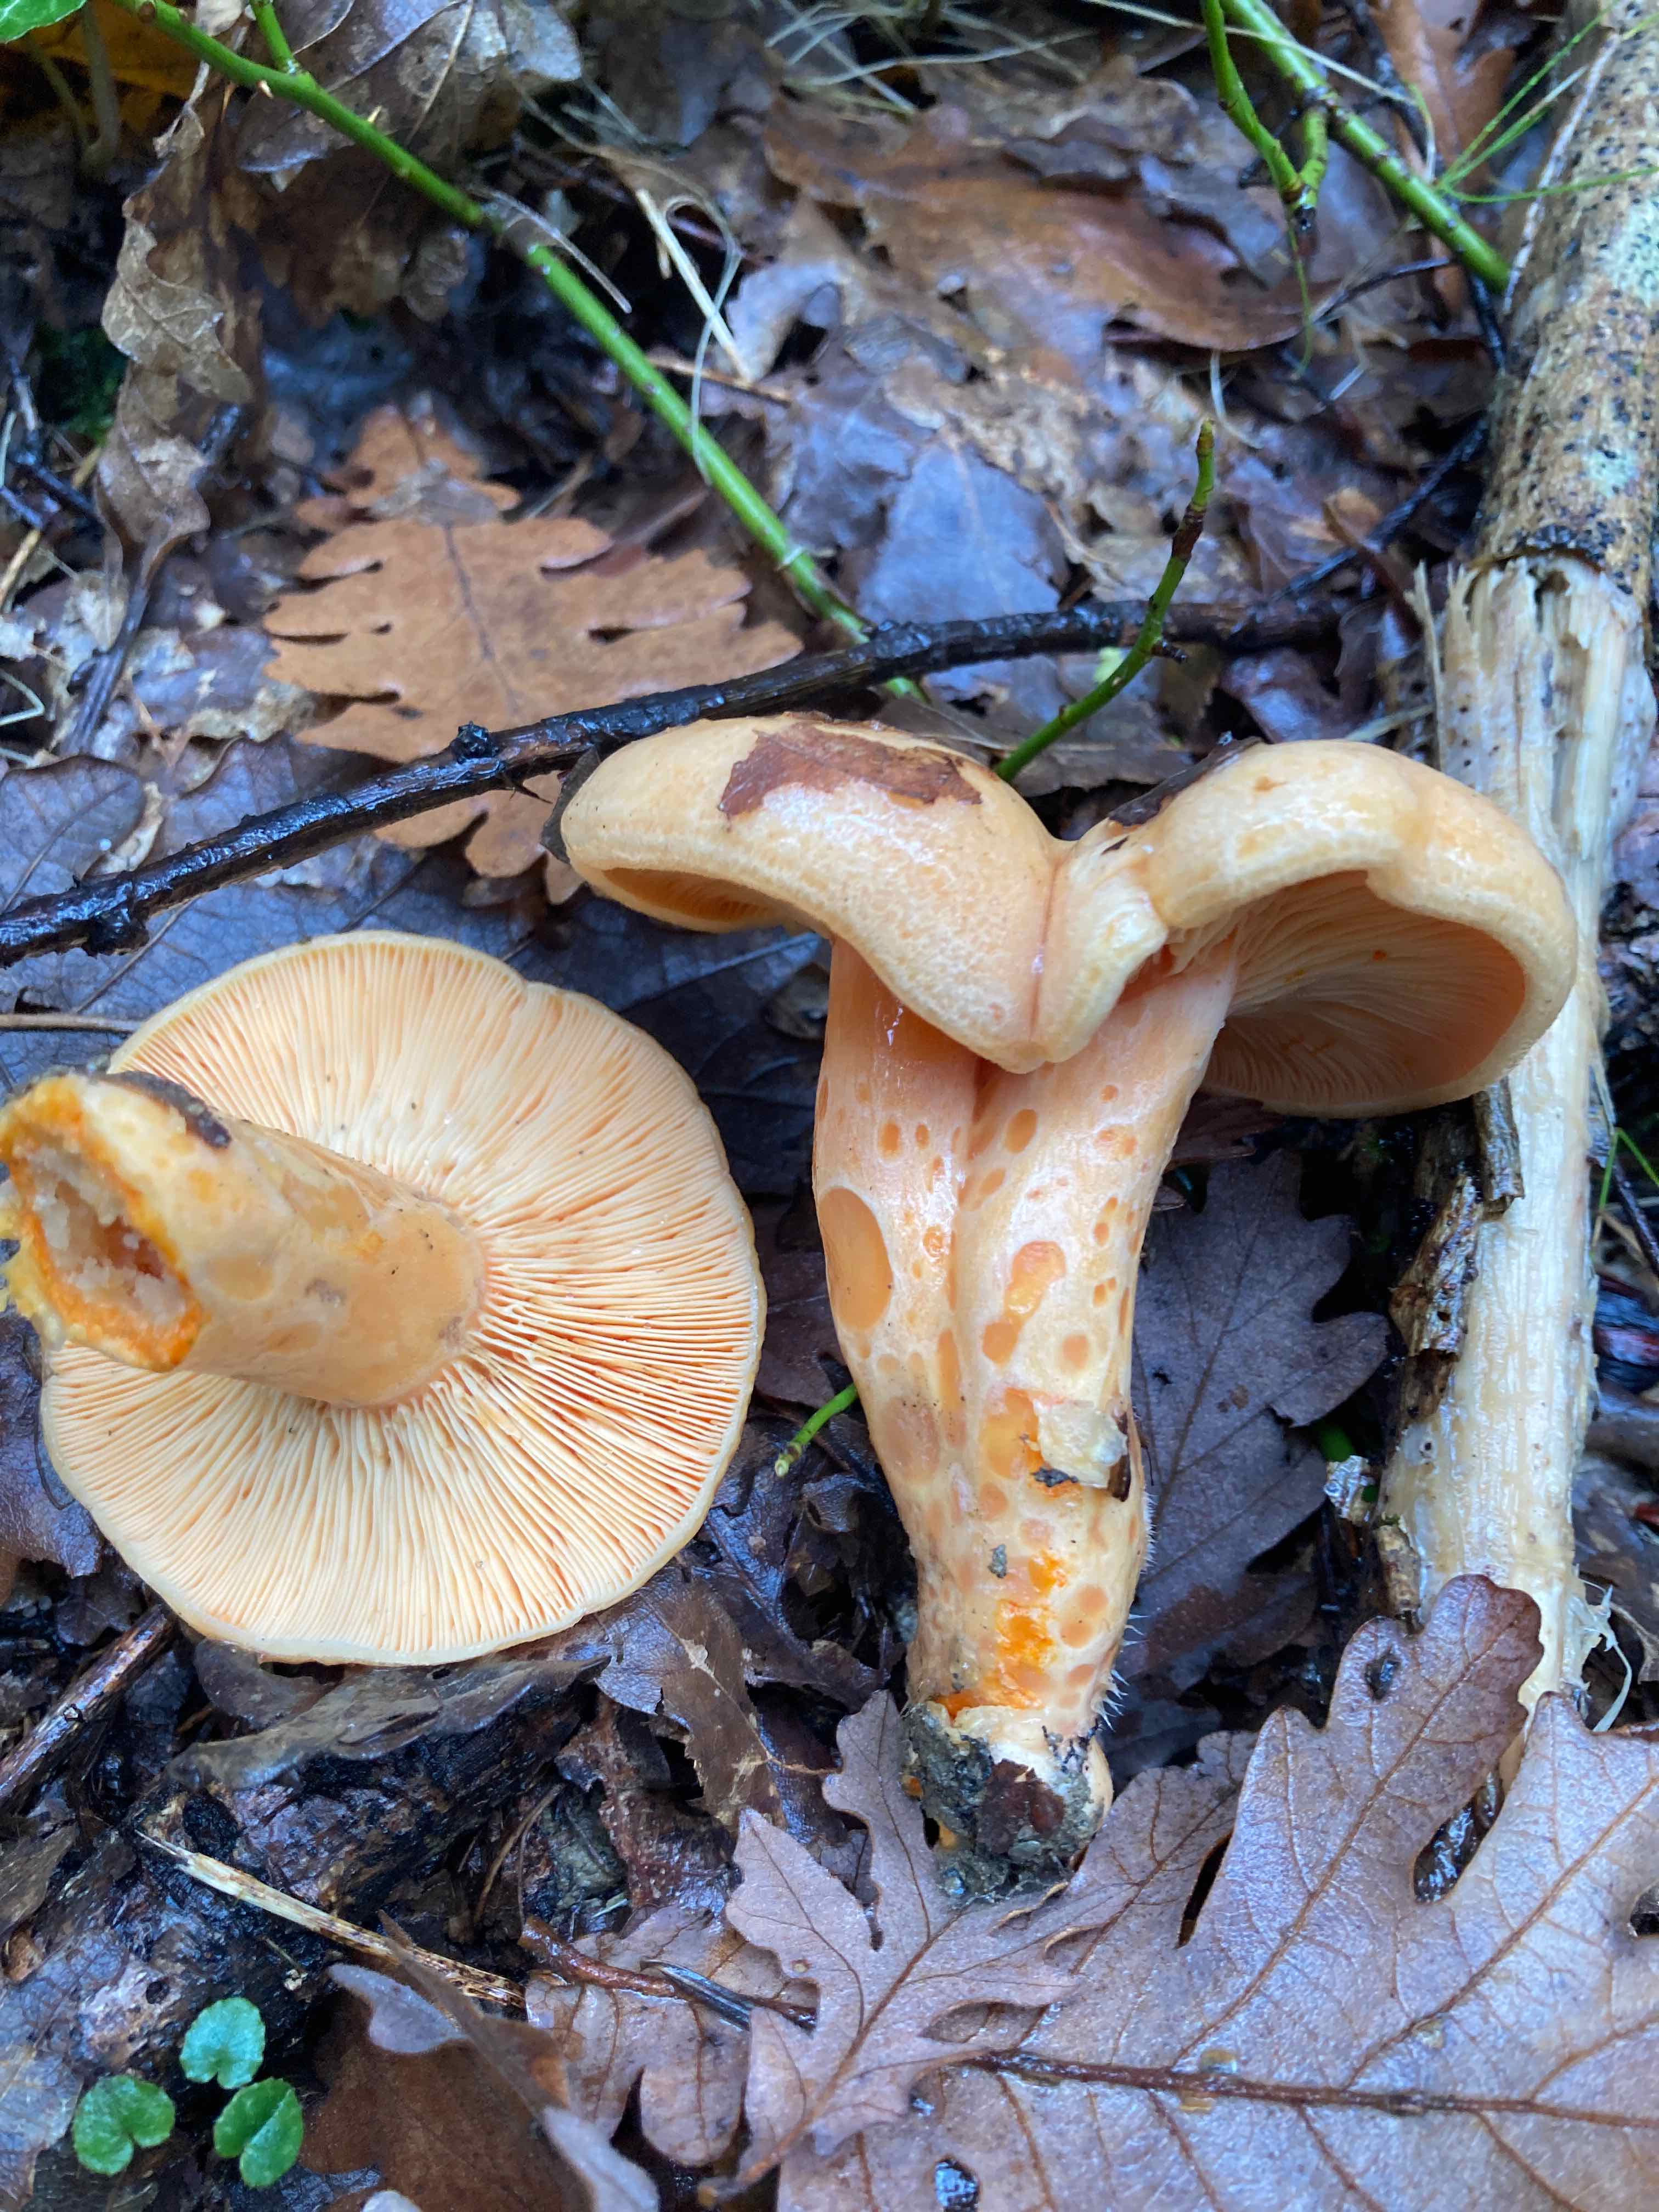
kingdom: Fungi
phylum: Basidiomycota
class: Agaricomycetes
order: Russulales
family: Russulaceae
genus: Lactarius
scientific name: Lactarius salmonicolor
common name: laksefarvet mælkehat
